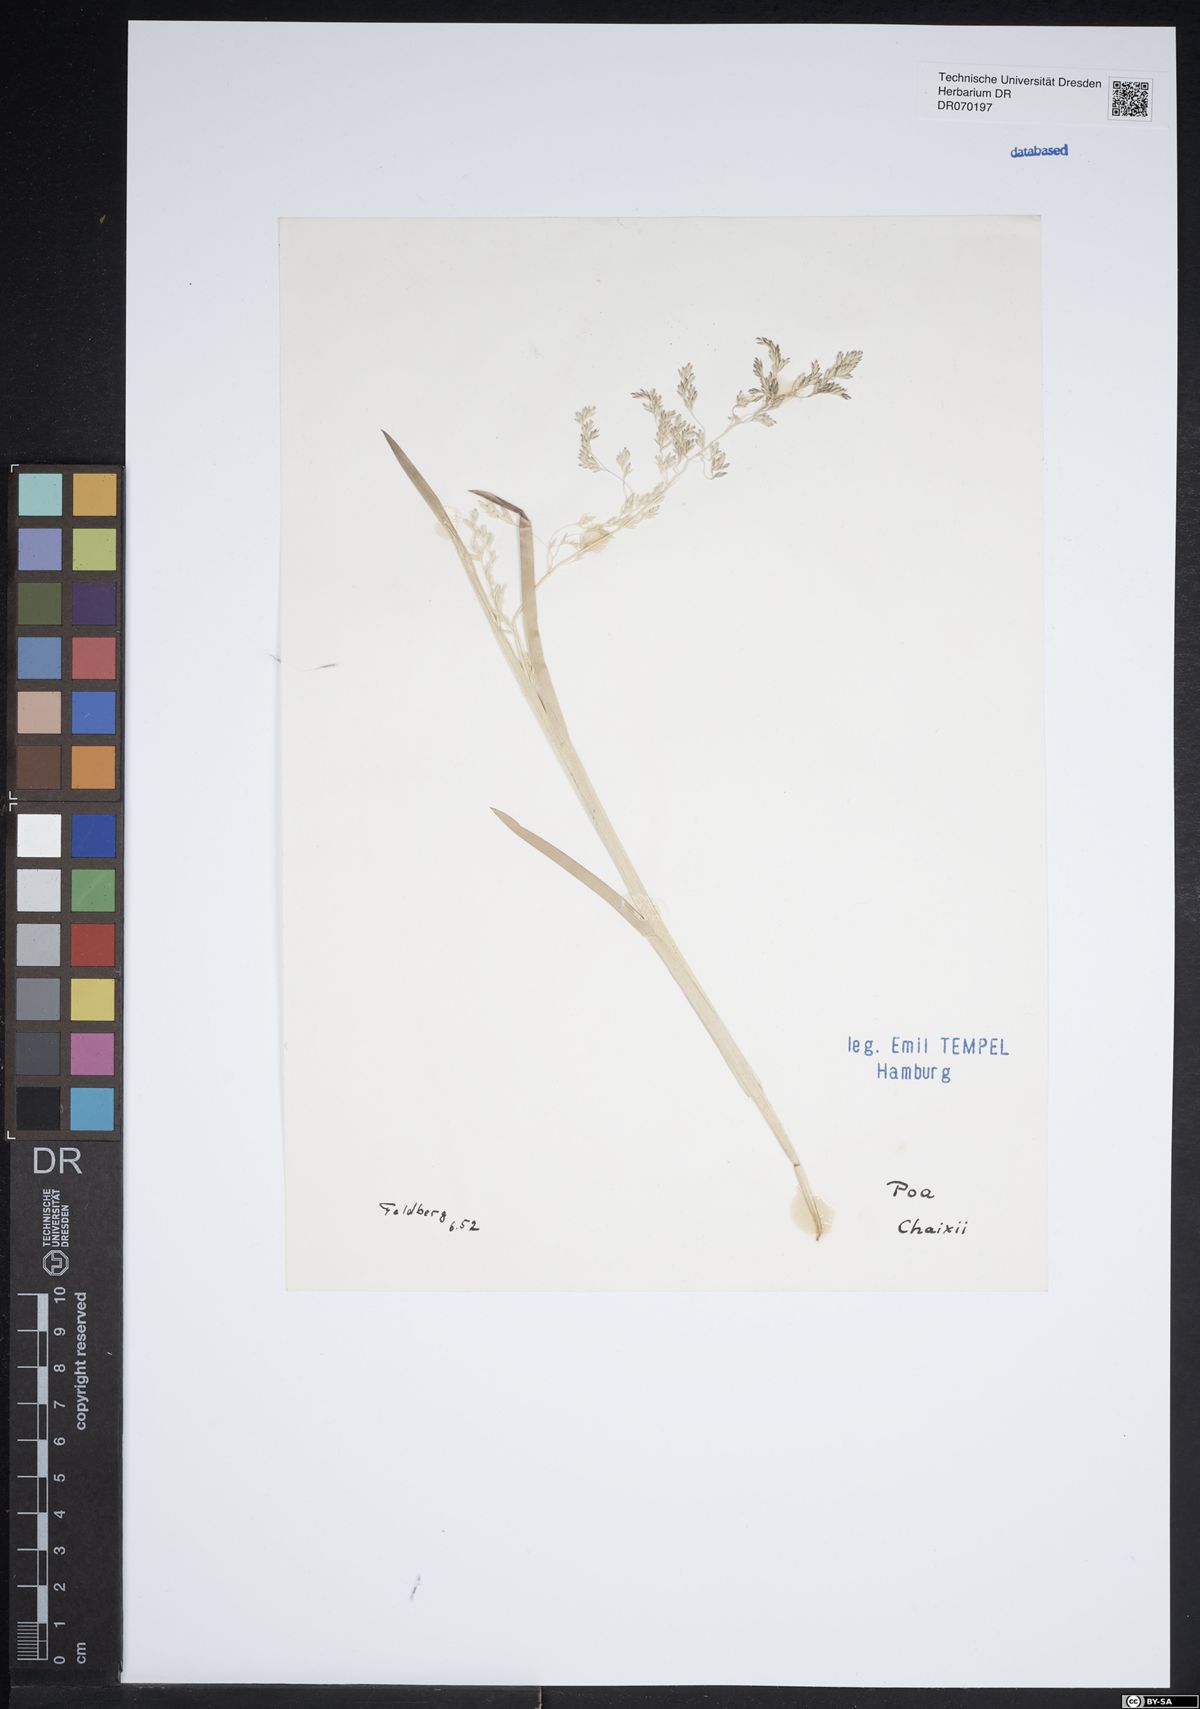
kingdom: Plantae
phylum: Tracheophyta
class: Liliopsida
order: Poales
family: Poaceae
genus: Poa
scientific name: Poa chaixii
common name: Broad-leaved meadow-grass
